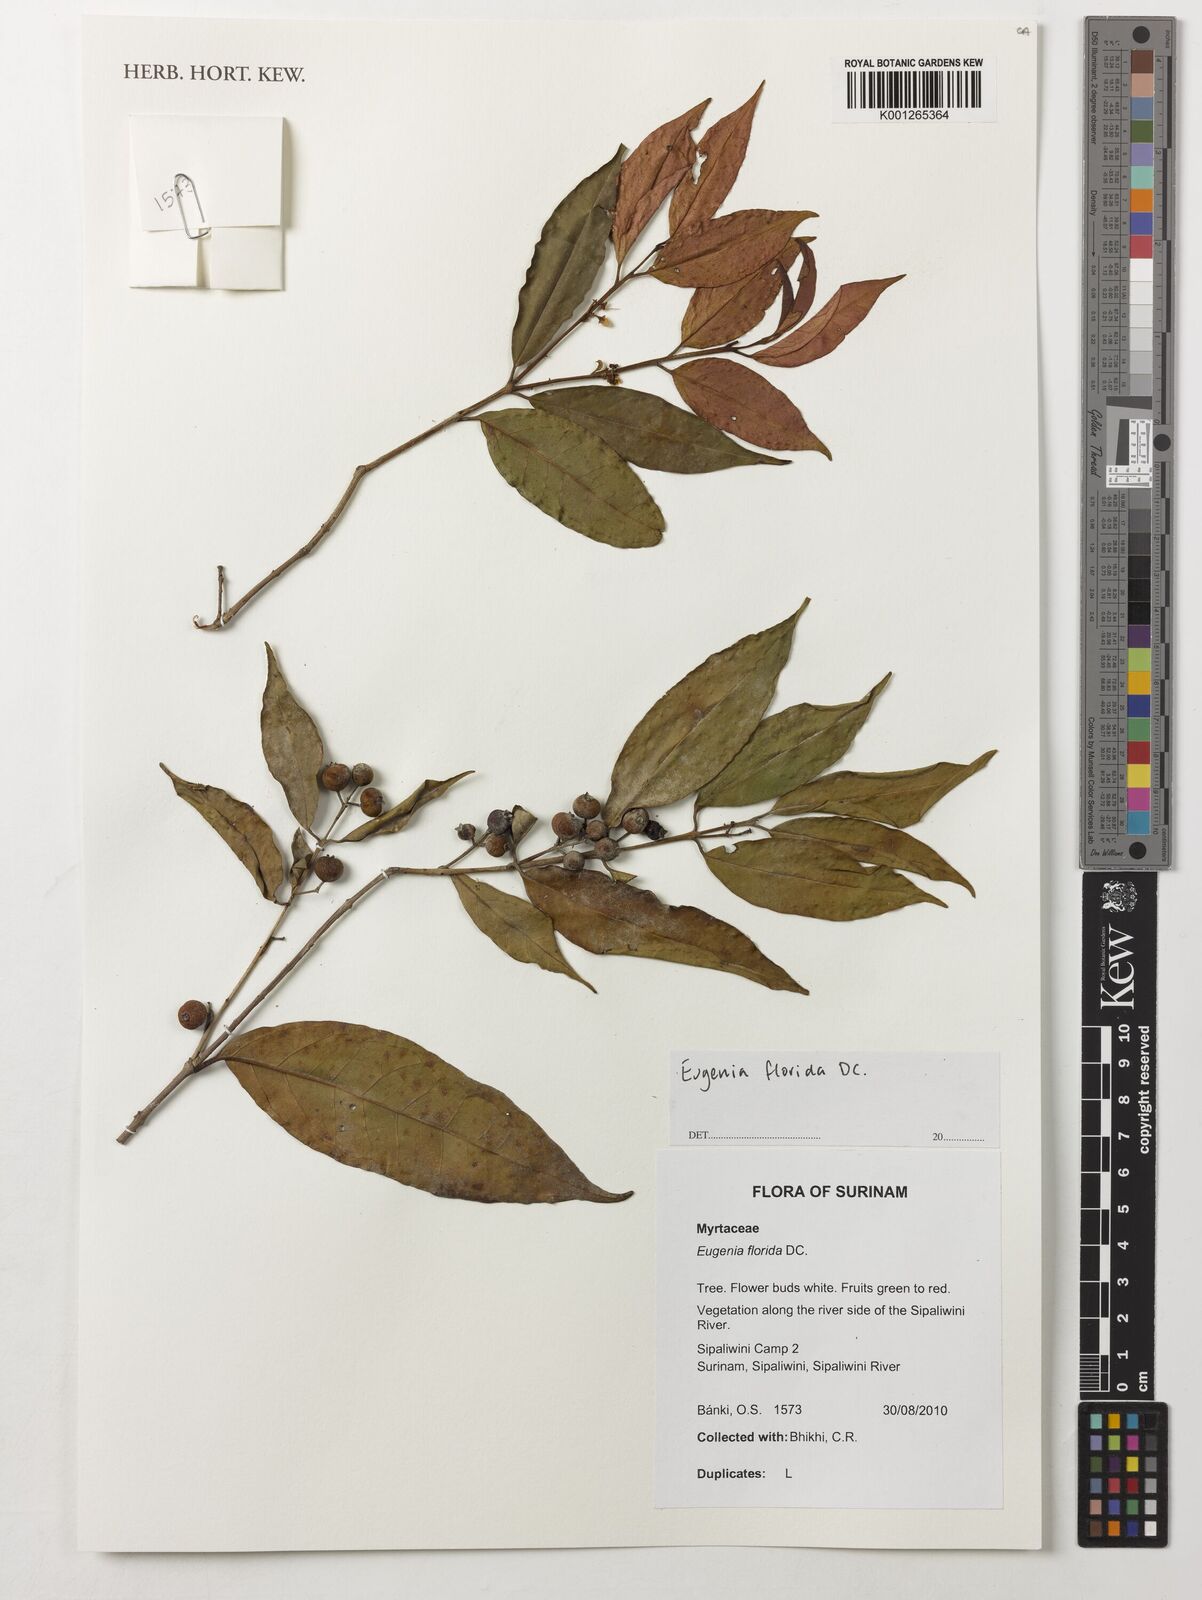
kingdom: Plantae
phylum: Tracheophyta
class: Magnoliopsida
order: Myrtales
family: Myrtaceae
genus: Eugenia
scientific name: Eugenia florida
